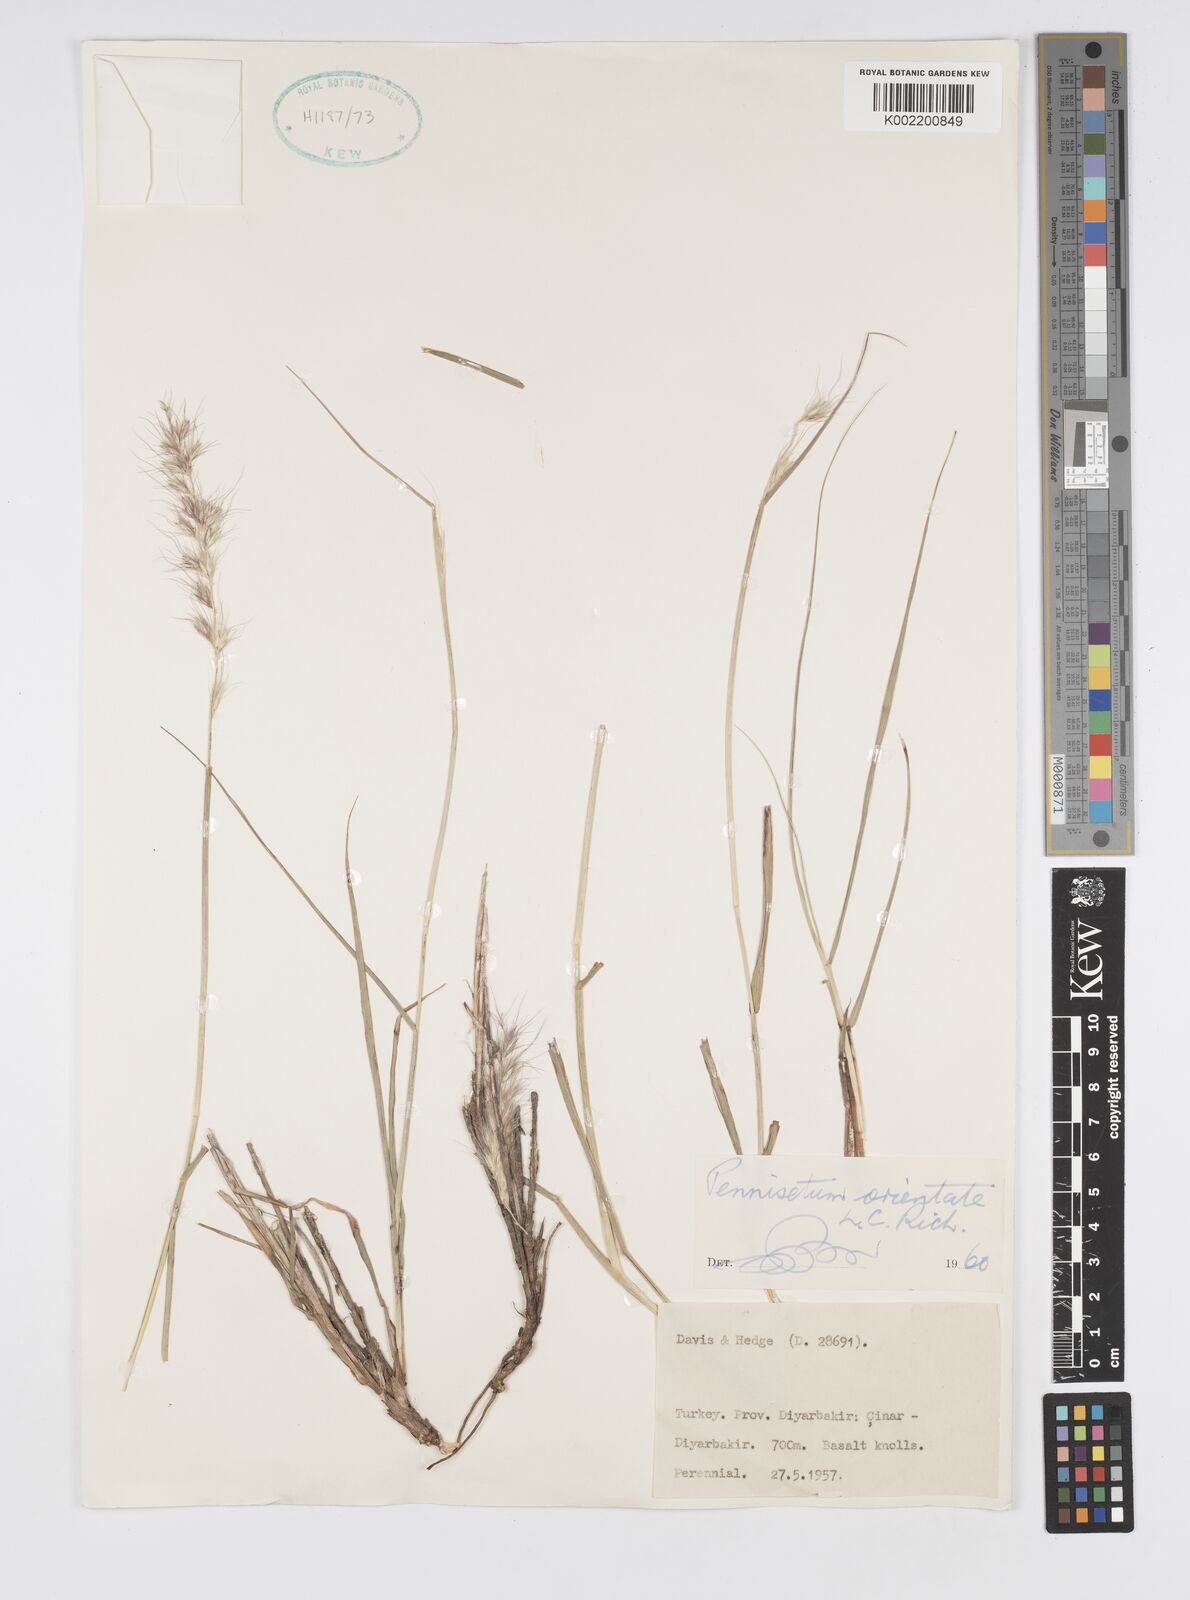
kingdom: Plantae
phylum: Tracheophyta
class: Liliopsida
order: Poales
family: Poaceae
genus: Cenchrus
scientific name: Cenchrus orientalis
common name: Oriental fountain grass
